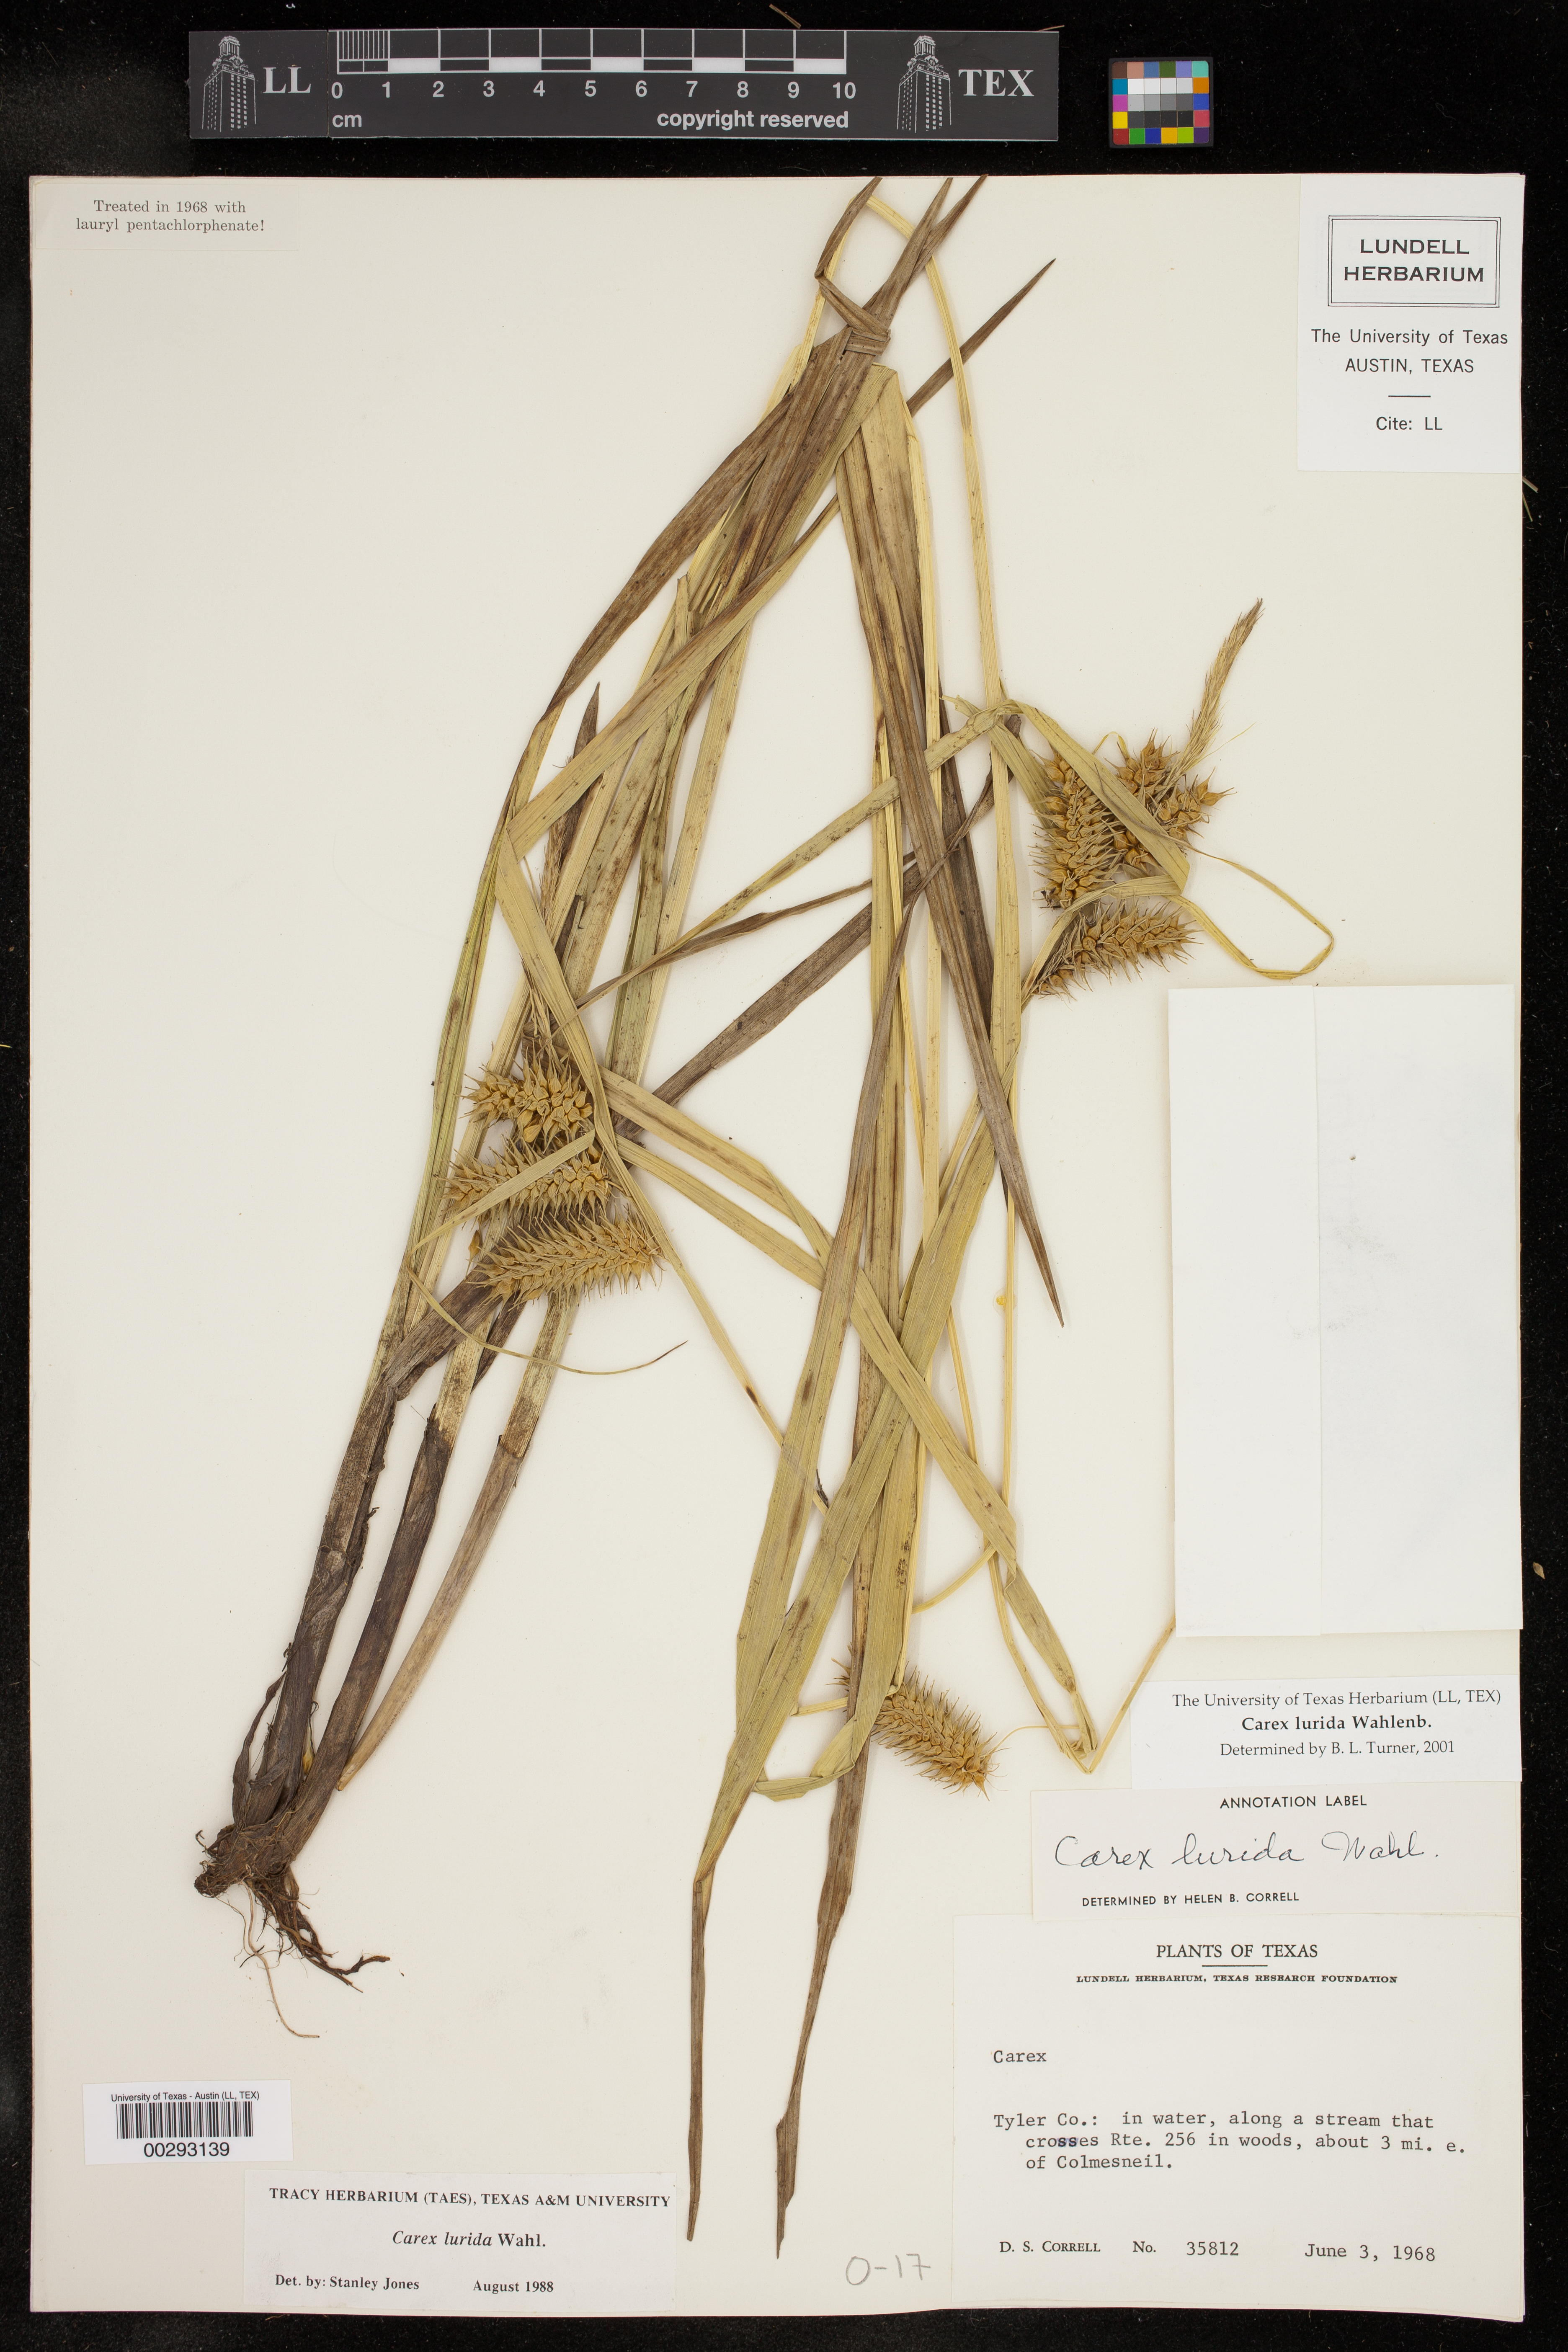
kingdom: Plantae
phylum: Tracheophyta
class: Liliopsida
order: Poales
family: Cyperaceae
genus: Carex
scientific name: Carex lurida
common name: Sallow sedge
